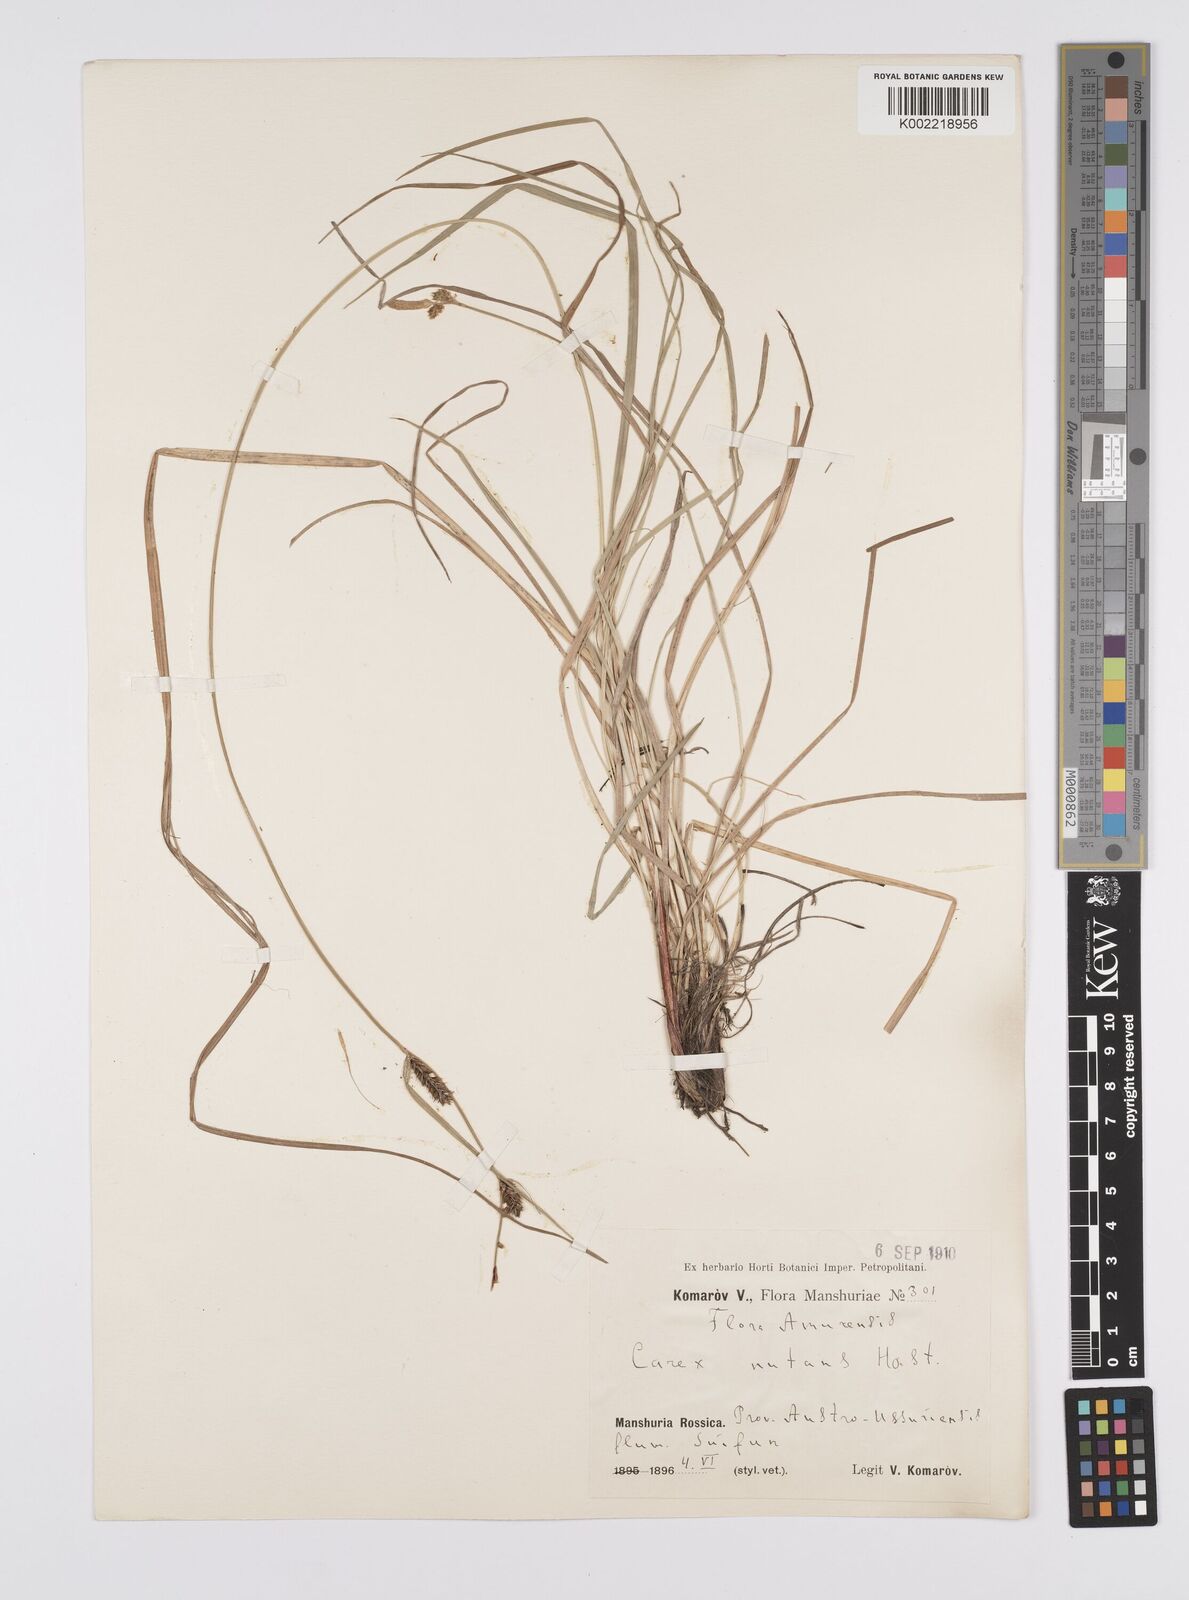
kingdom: Plantae
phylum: Tracheophyta
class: Liliopsida
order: Poales
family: Cyperaceae
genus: Carex
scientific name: Carex melanostachya
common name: Black-spiked sedge
